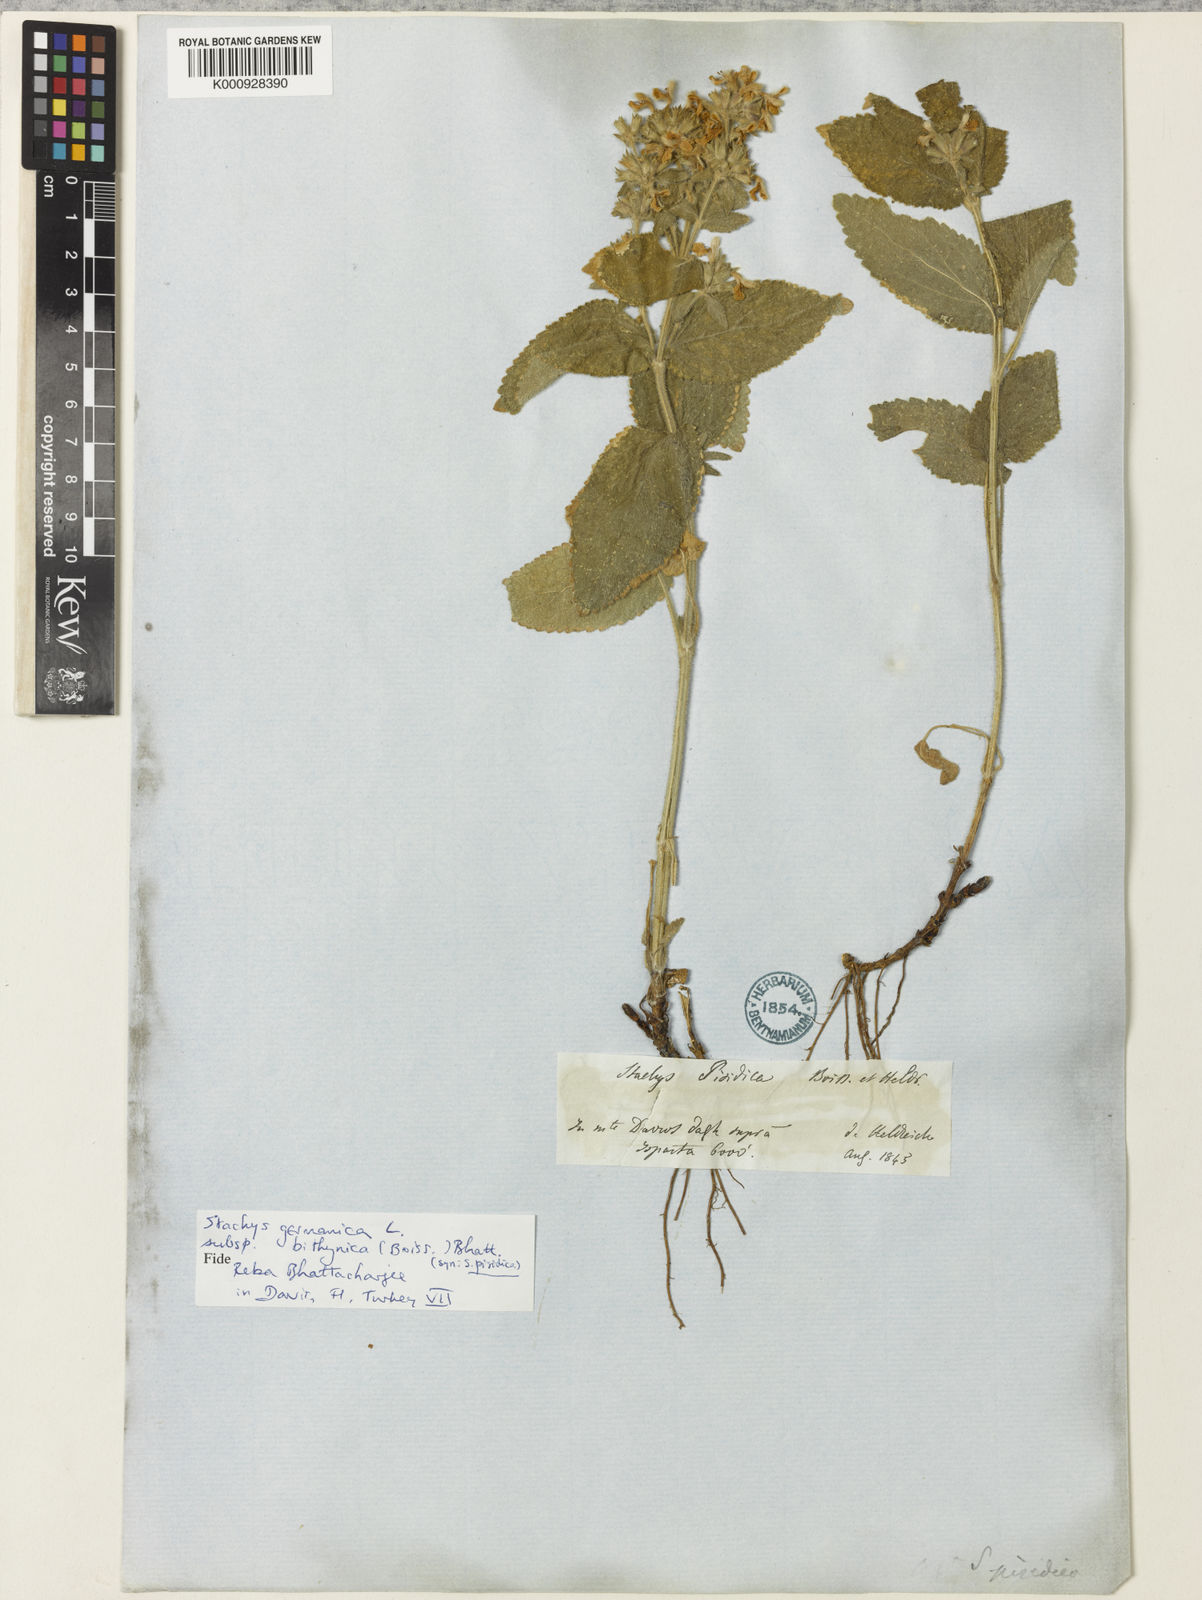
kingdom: Plantae
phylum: Tracheophyta
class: Magnoliopsida
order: Lamiales
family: Lamiaceae
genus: Stachys
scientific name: Stachys bithynica
